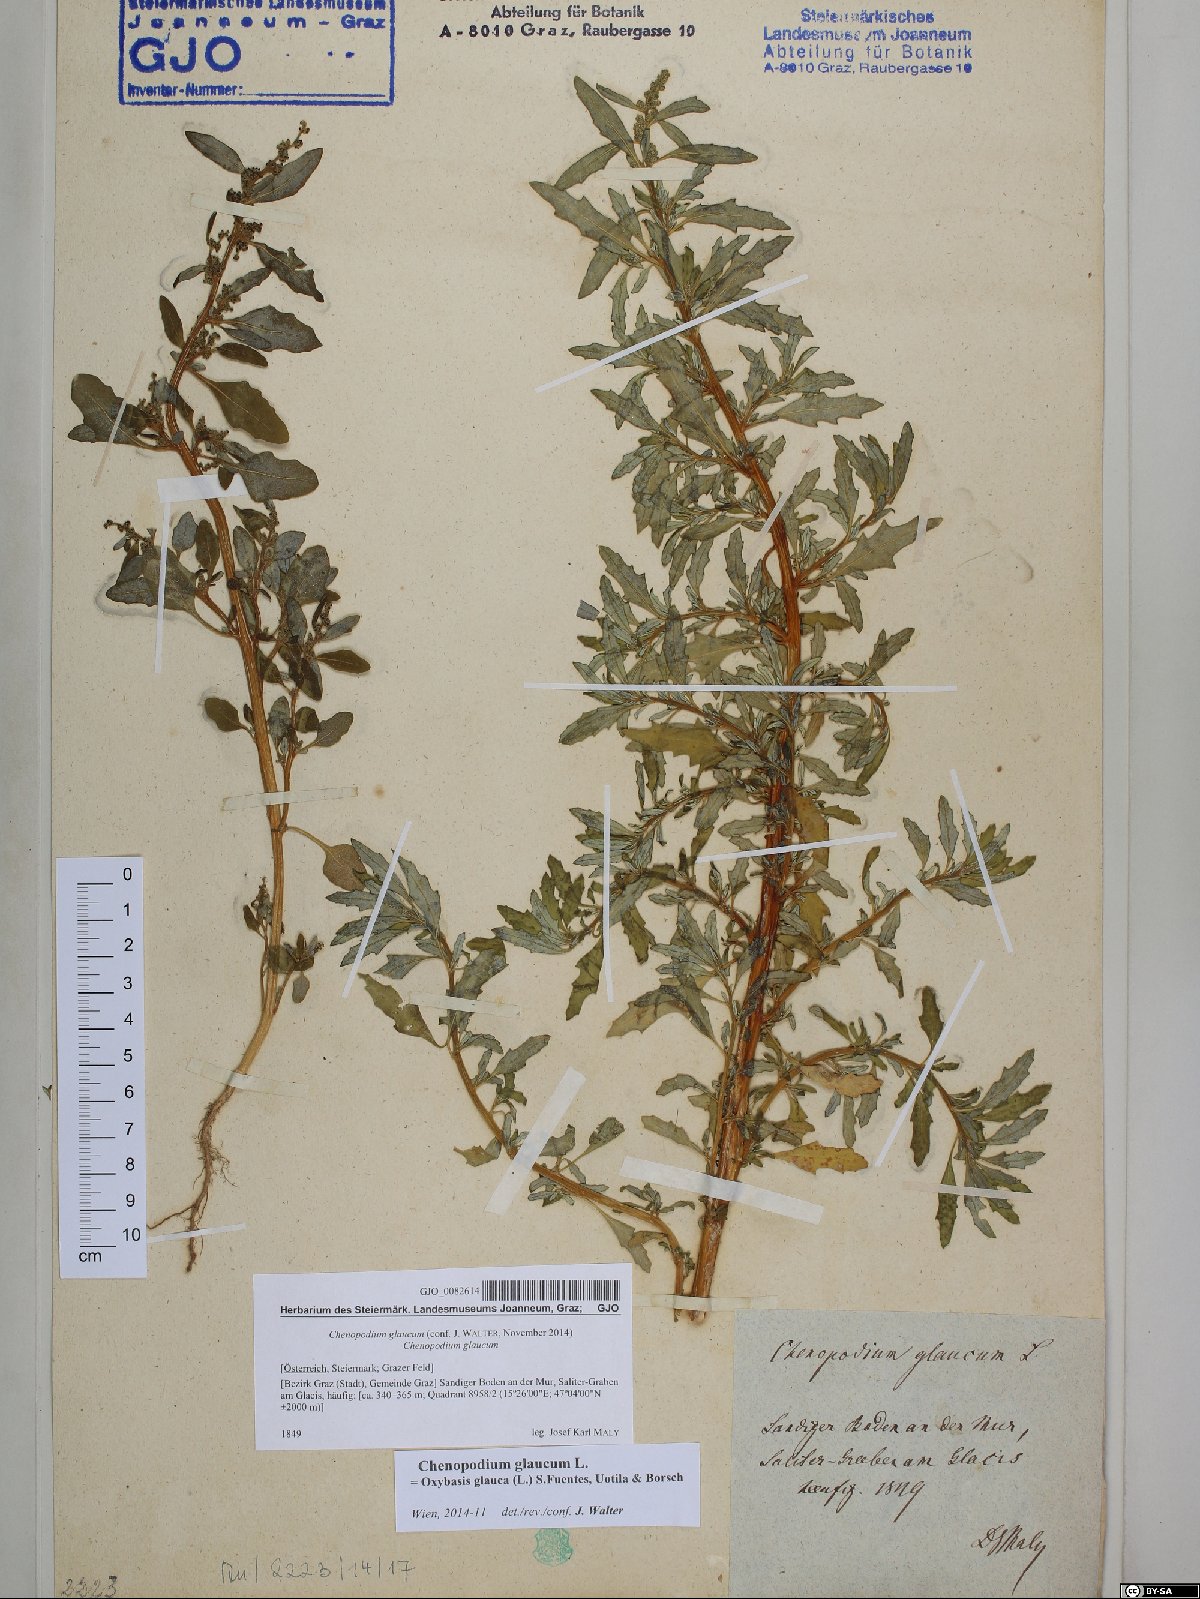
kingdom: Plantae
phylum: Tracheophyta
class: Magnoliopsida
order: Caryophyllales
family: Amaranthaceae
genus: Oxybasis
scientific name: Oxybasis glauca
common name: Glaucous goosefoot
